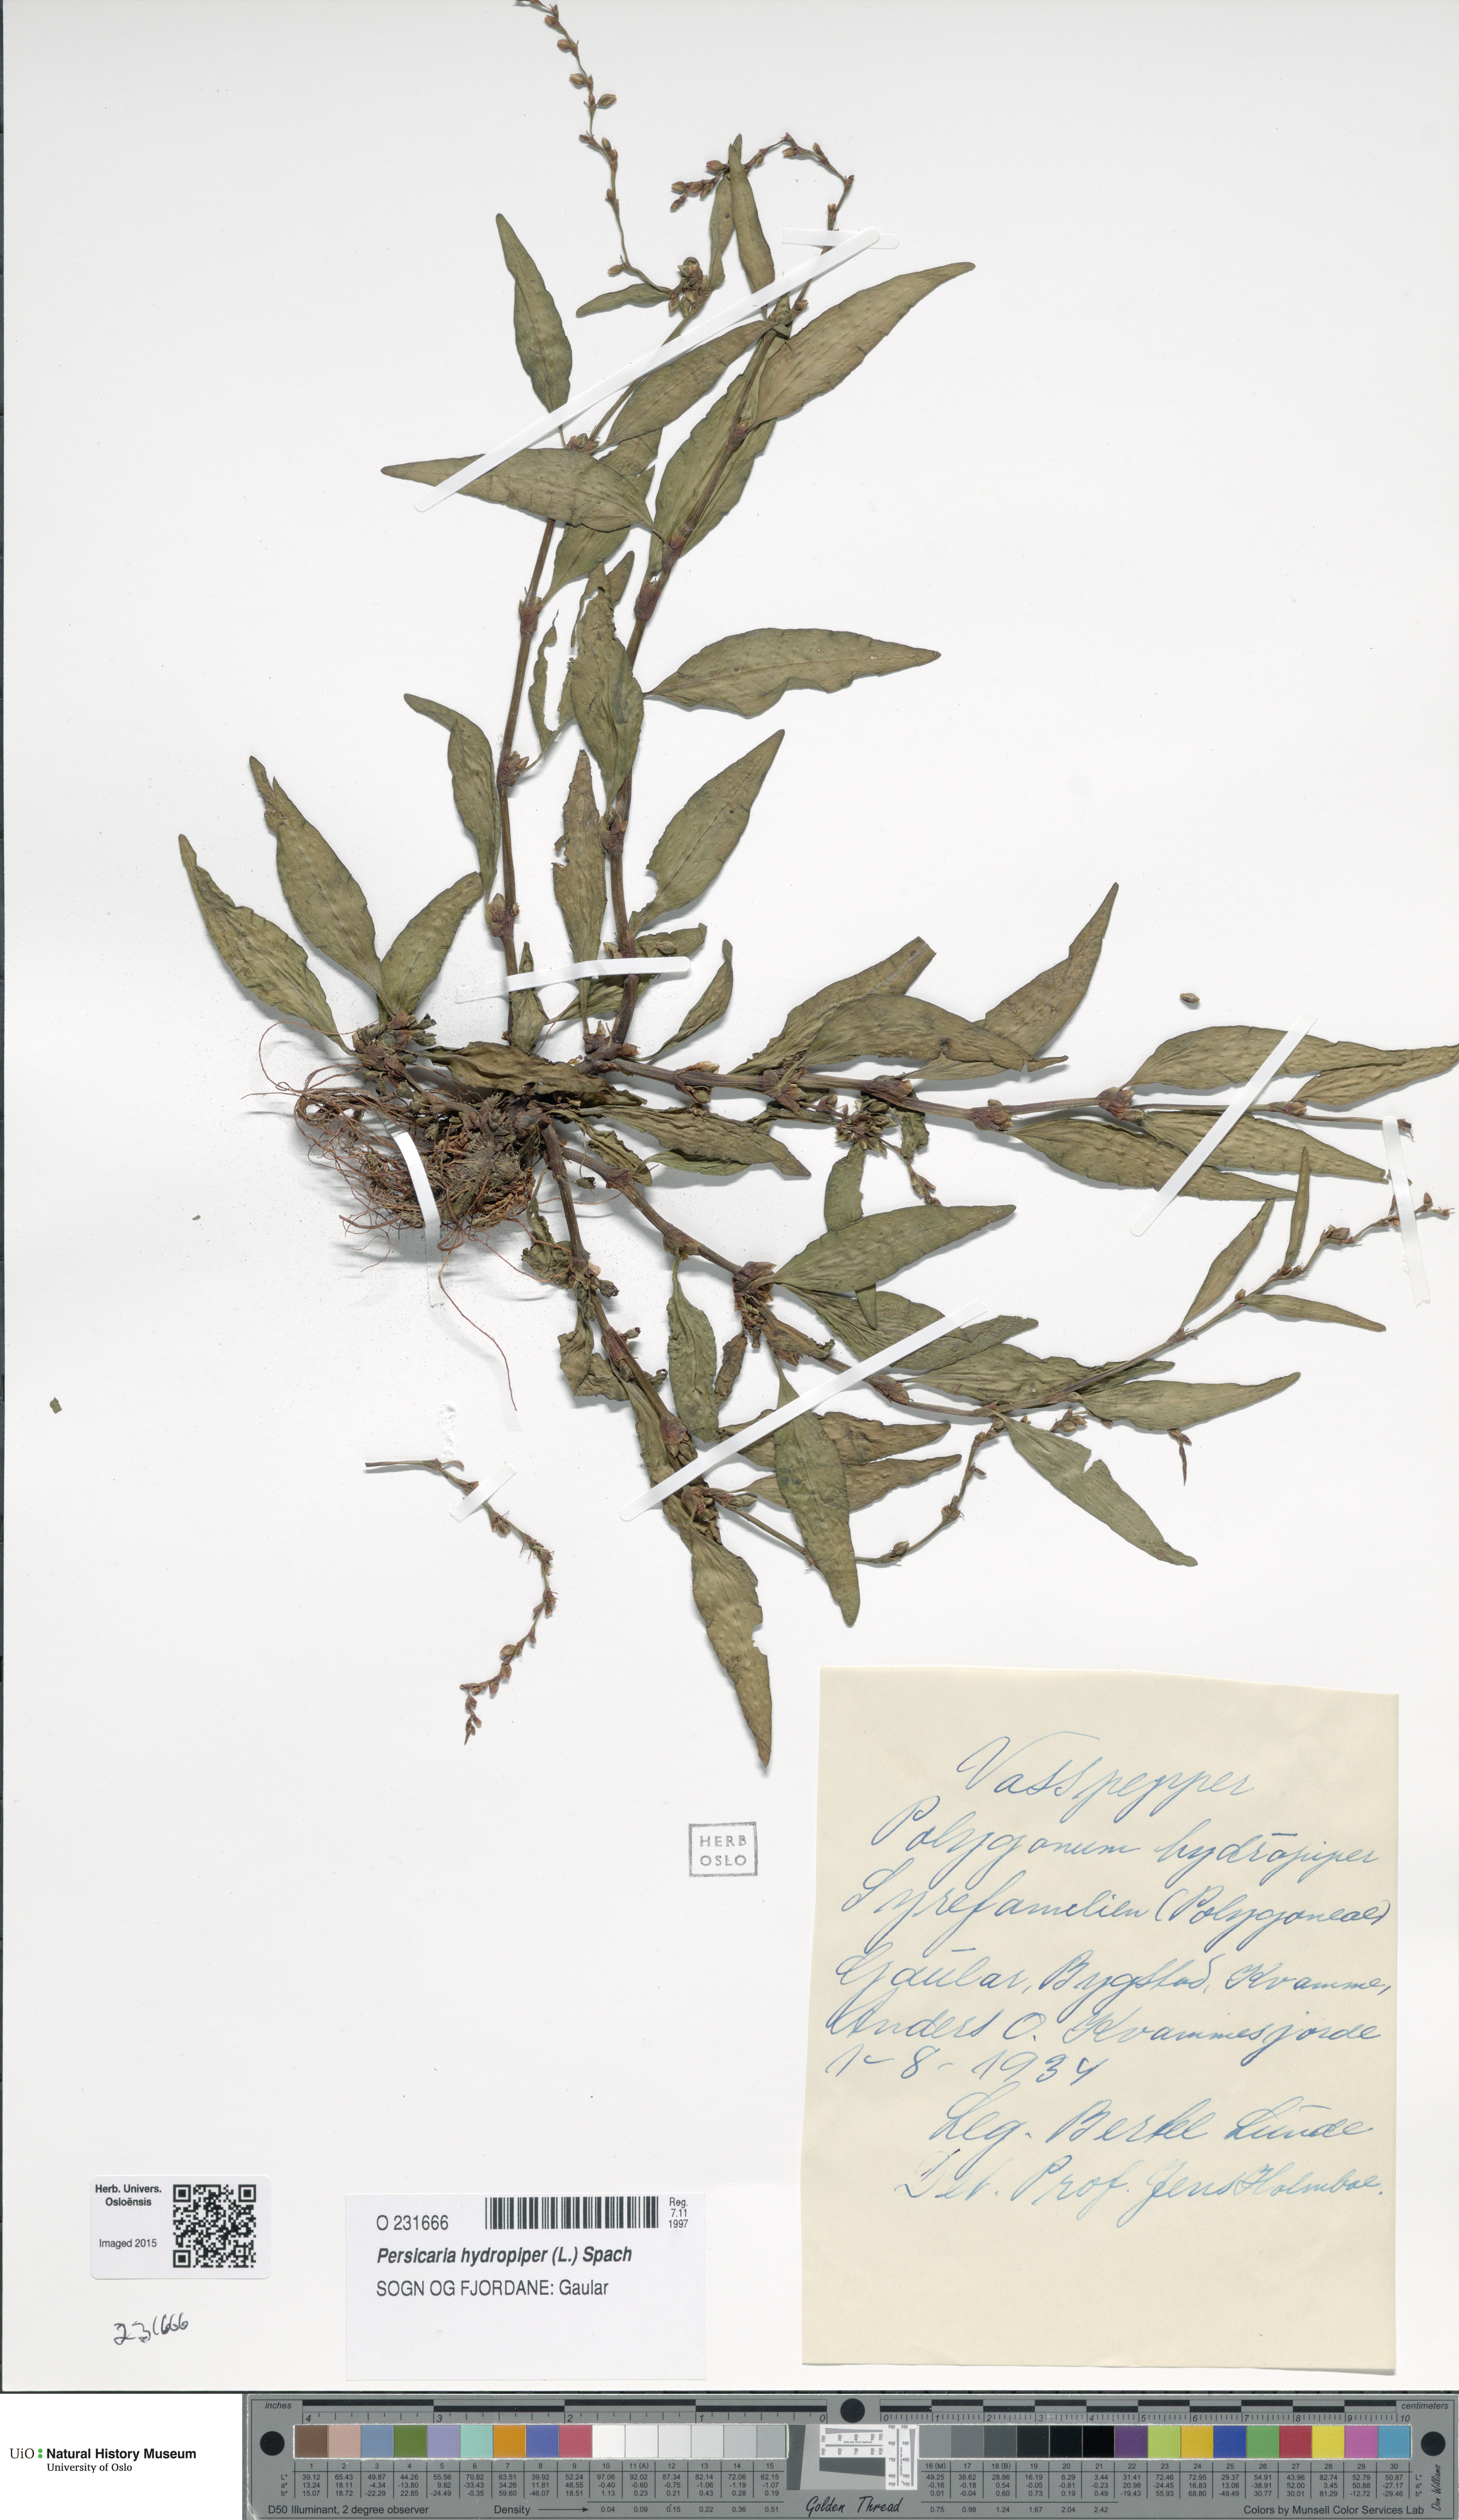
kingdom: Plantae
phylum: Tracheophyta
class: Magnoliopsida
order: Caryophyllales
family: Polygonaceae
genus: Persicaria
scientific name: Persicaria hydropiper
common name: Water-pepper
